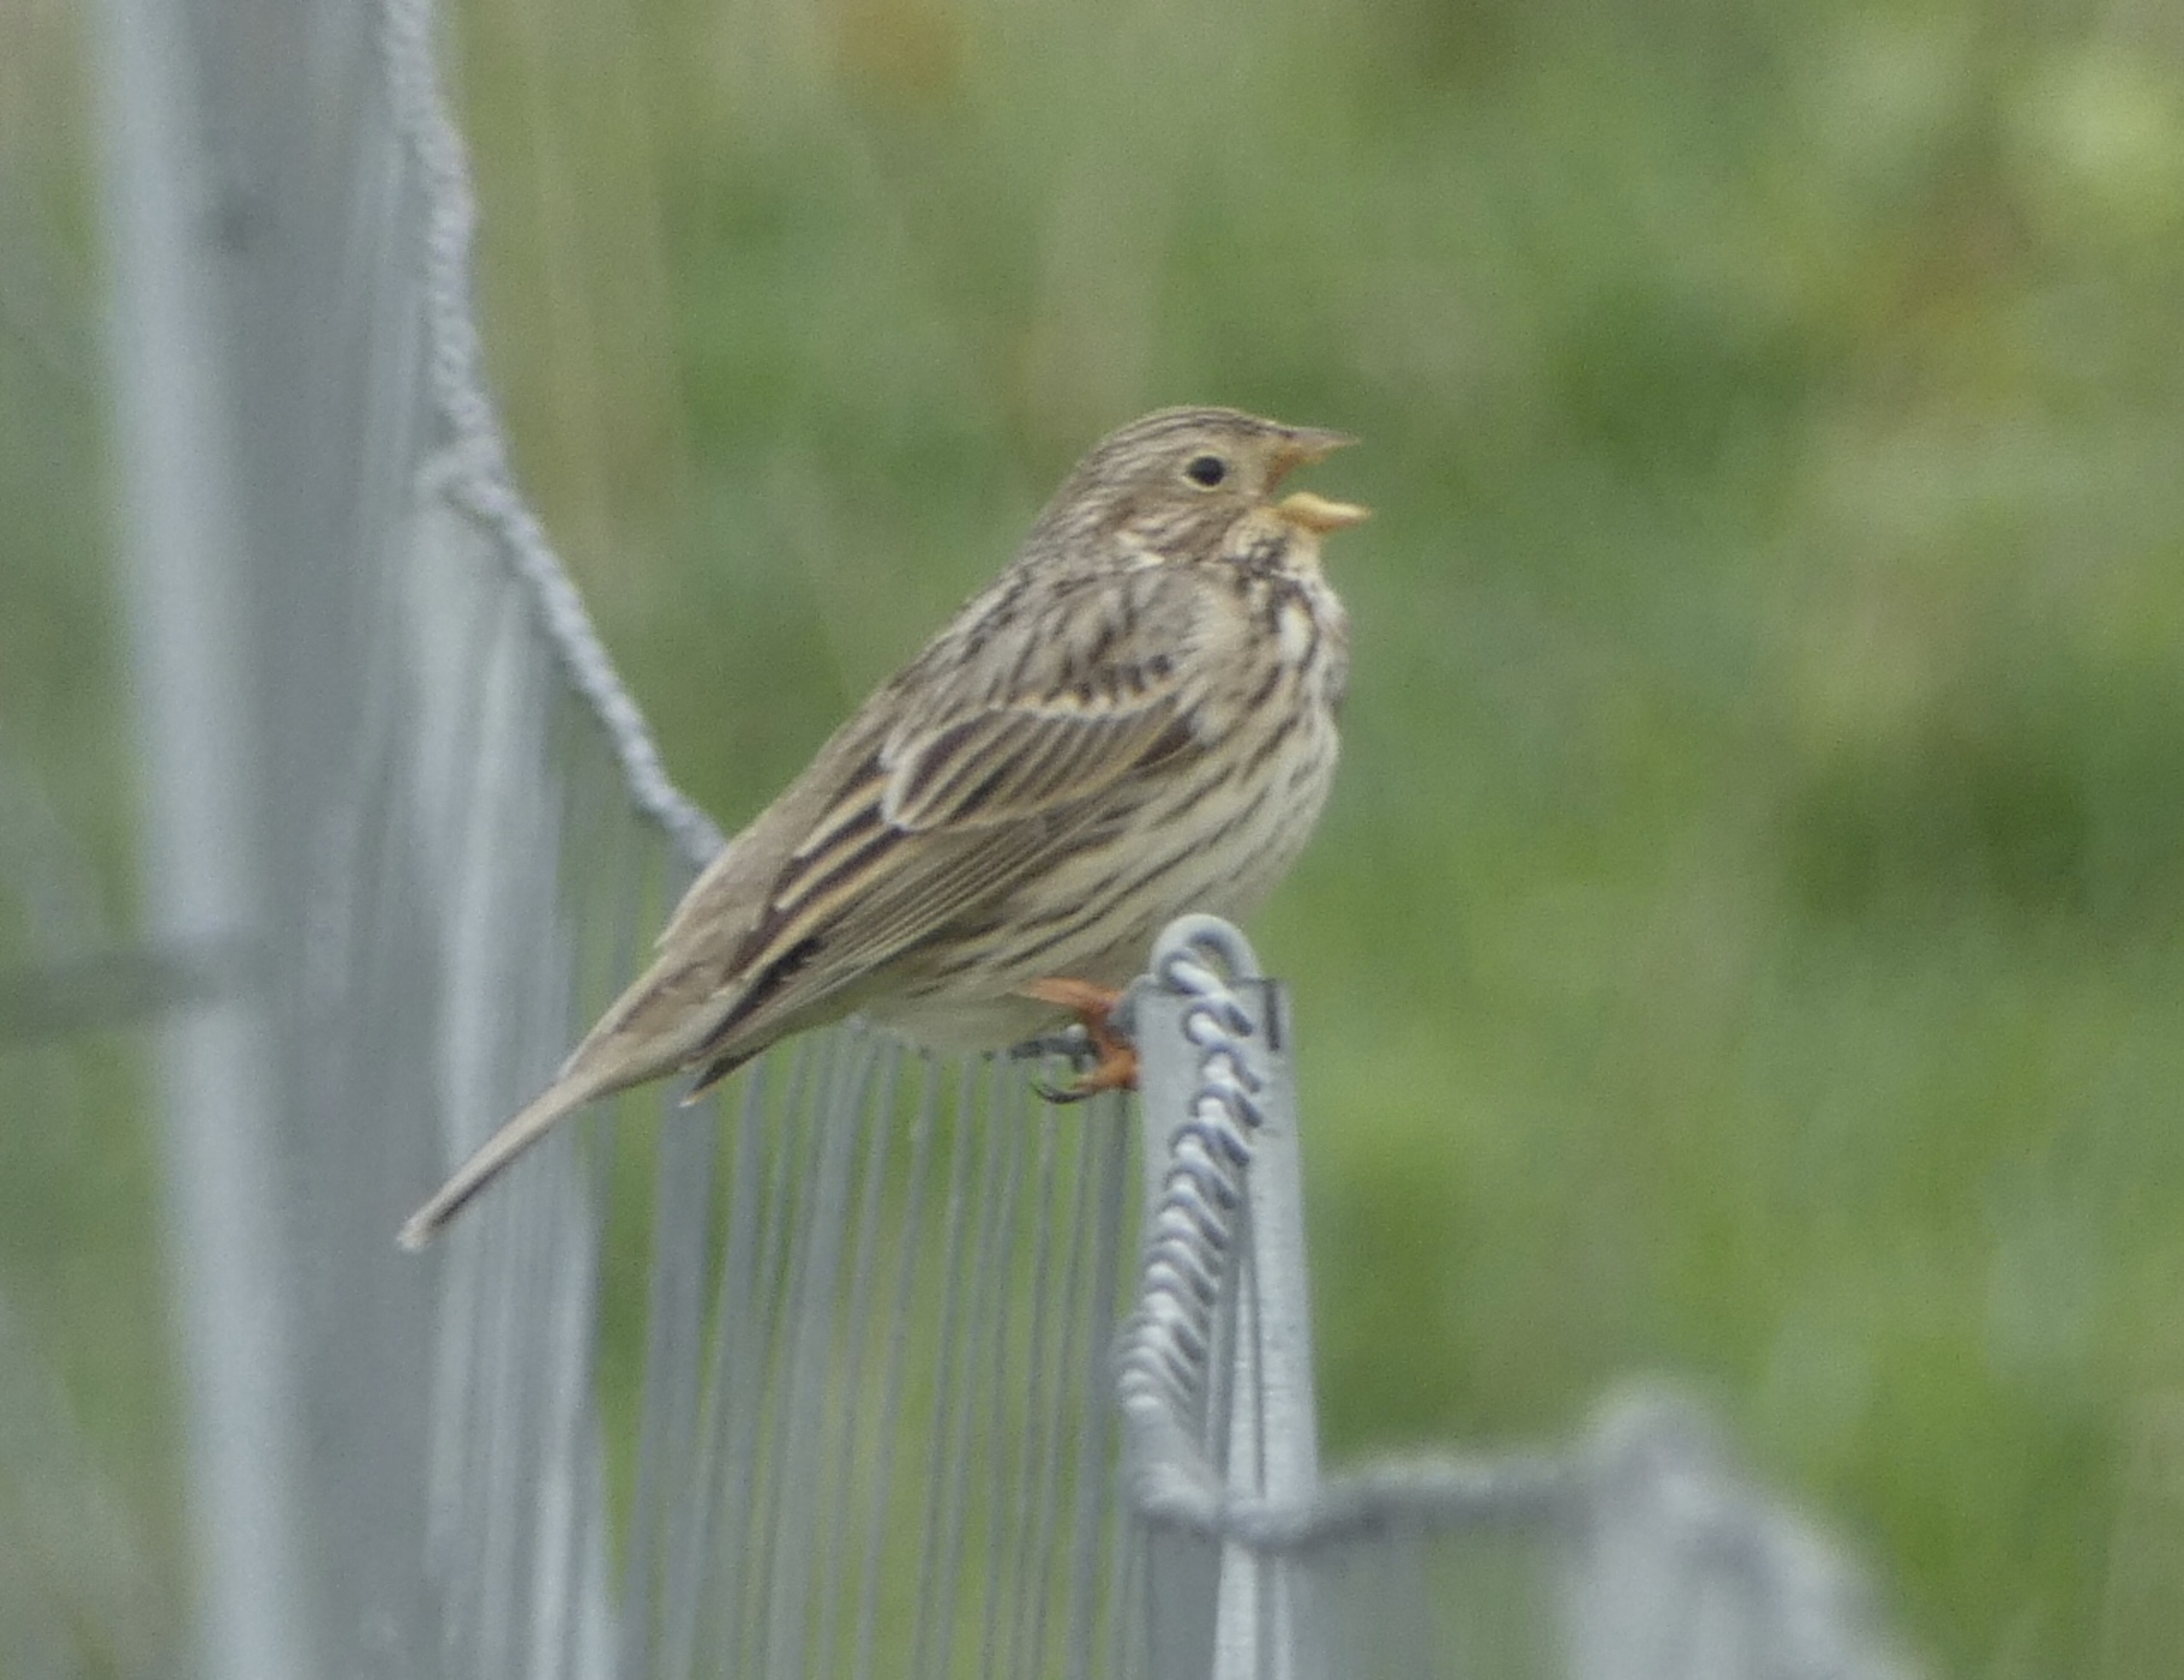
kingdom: Animalia
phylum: Chordata
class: Aves
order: Passeriformes
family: Emberizidae
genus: Emberiza
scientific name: Emberiza calandra
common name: Bomlærke
